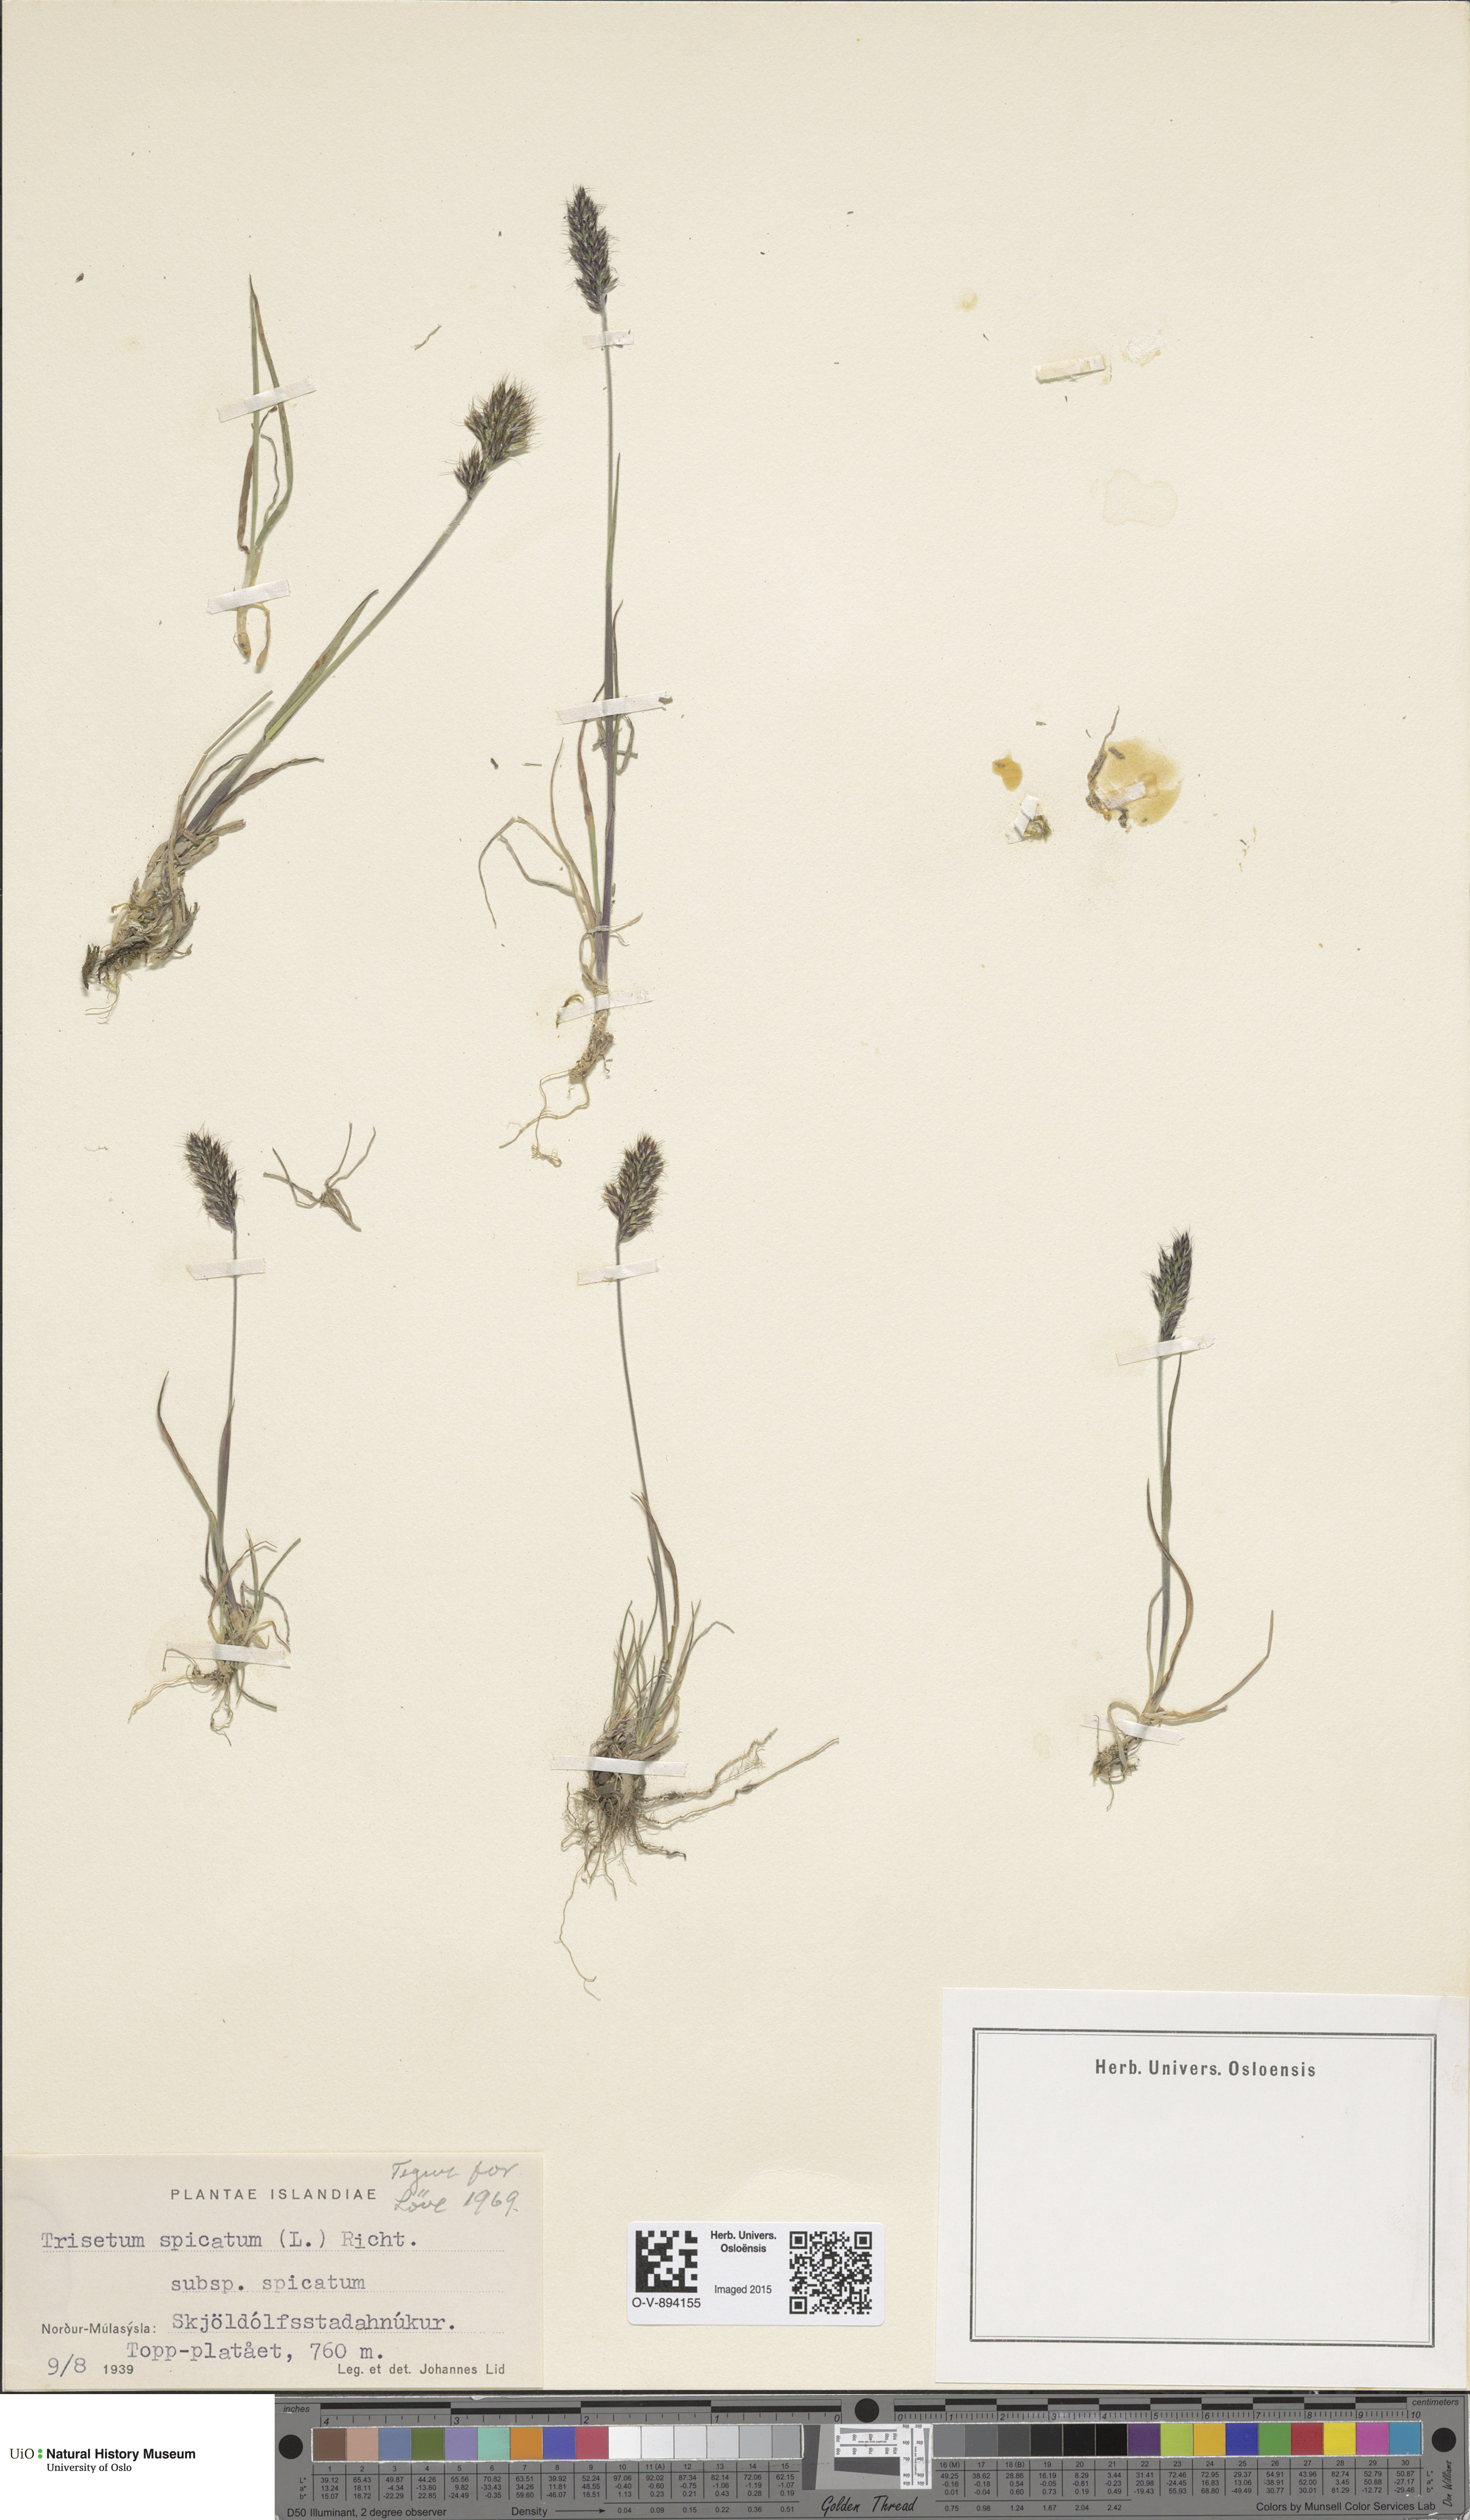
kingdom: Plantae
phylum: Tracheophyta
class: Liliopsida
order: Poales
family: Poaceae
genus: Koeleria
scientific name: Koeleria spicata
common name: Mountain trisetum
